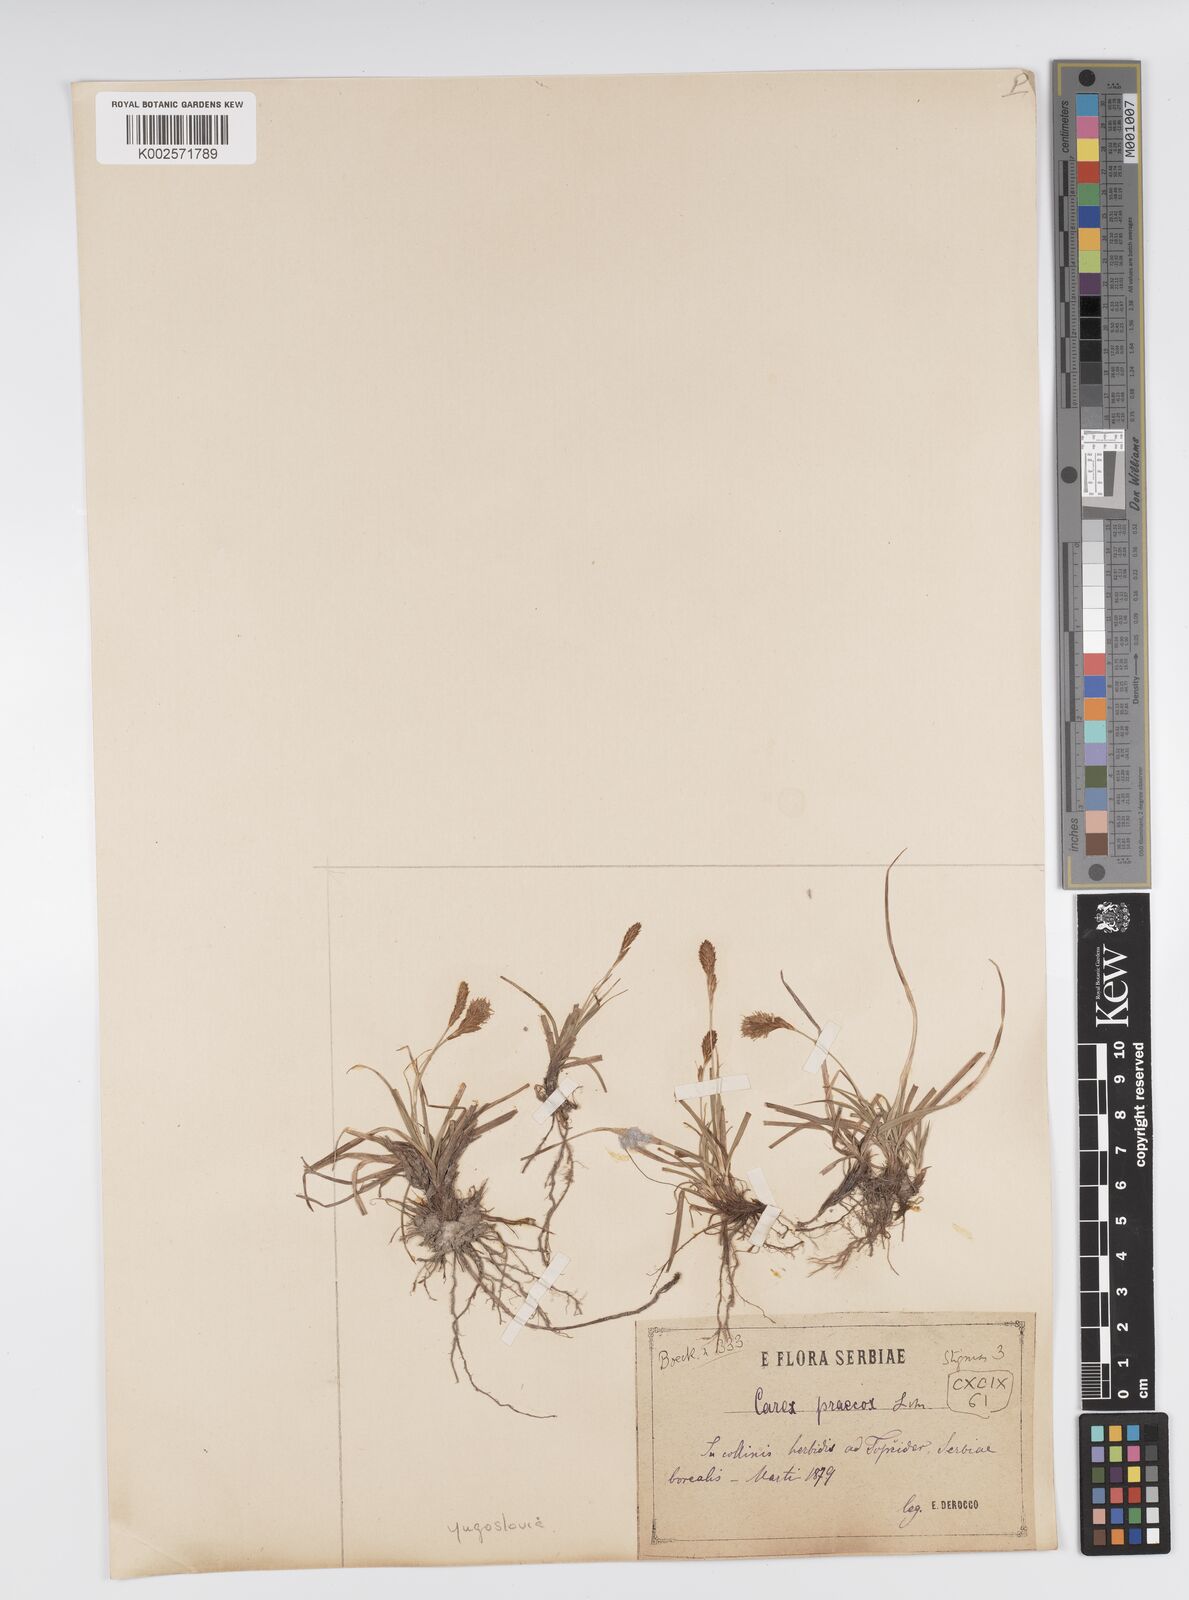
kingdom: Plantae
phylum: Tracheophyta
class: Liliopsida
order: Poales
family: Cyperaceae
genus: Carex
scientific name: Carex caryophyllea
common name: Spring sedge
